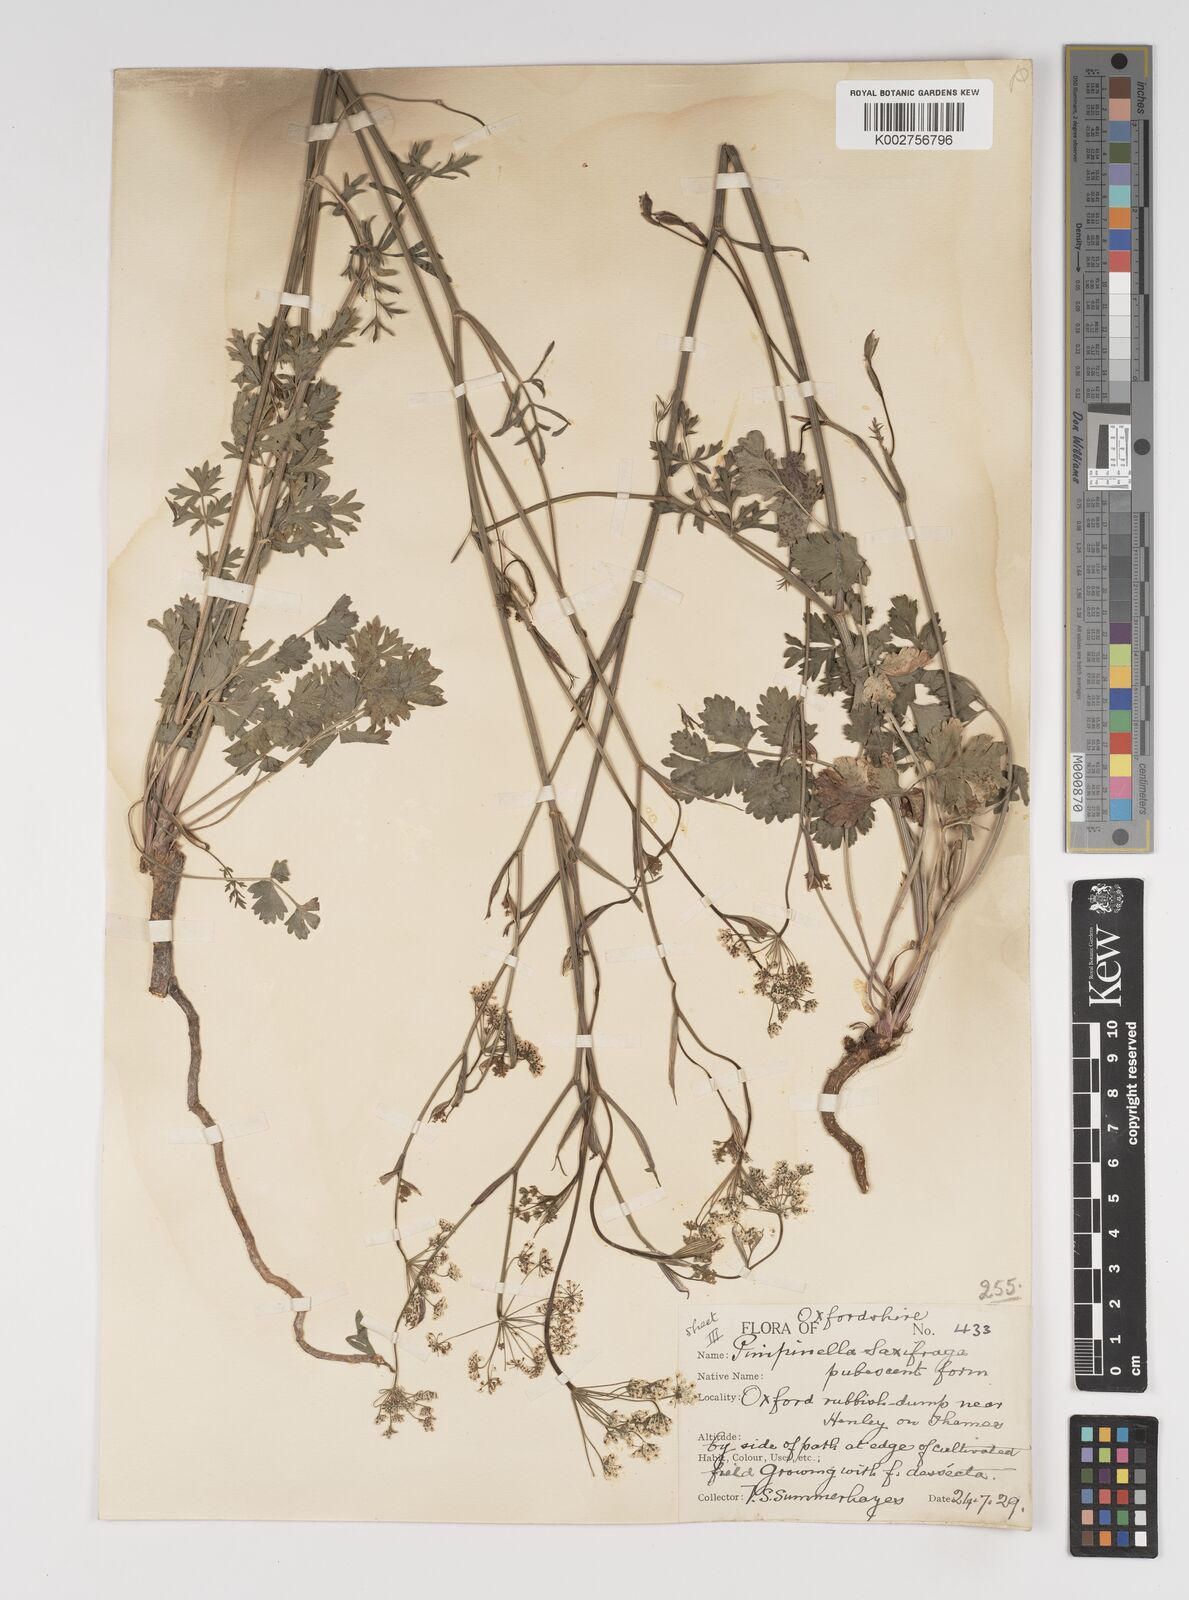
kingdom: Plantae
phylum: Tracheophyta
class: Magnoliopsida
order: Apiales
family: Apiaceae
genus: Pimpinella
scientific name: Pimpinella saxifraga
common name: Burnet-saxifrage
